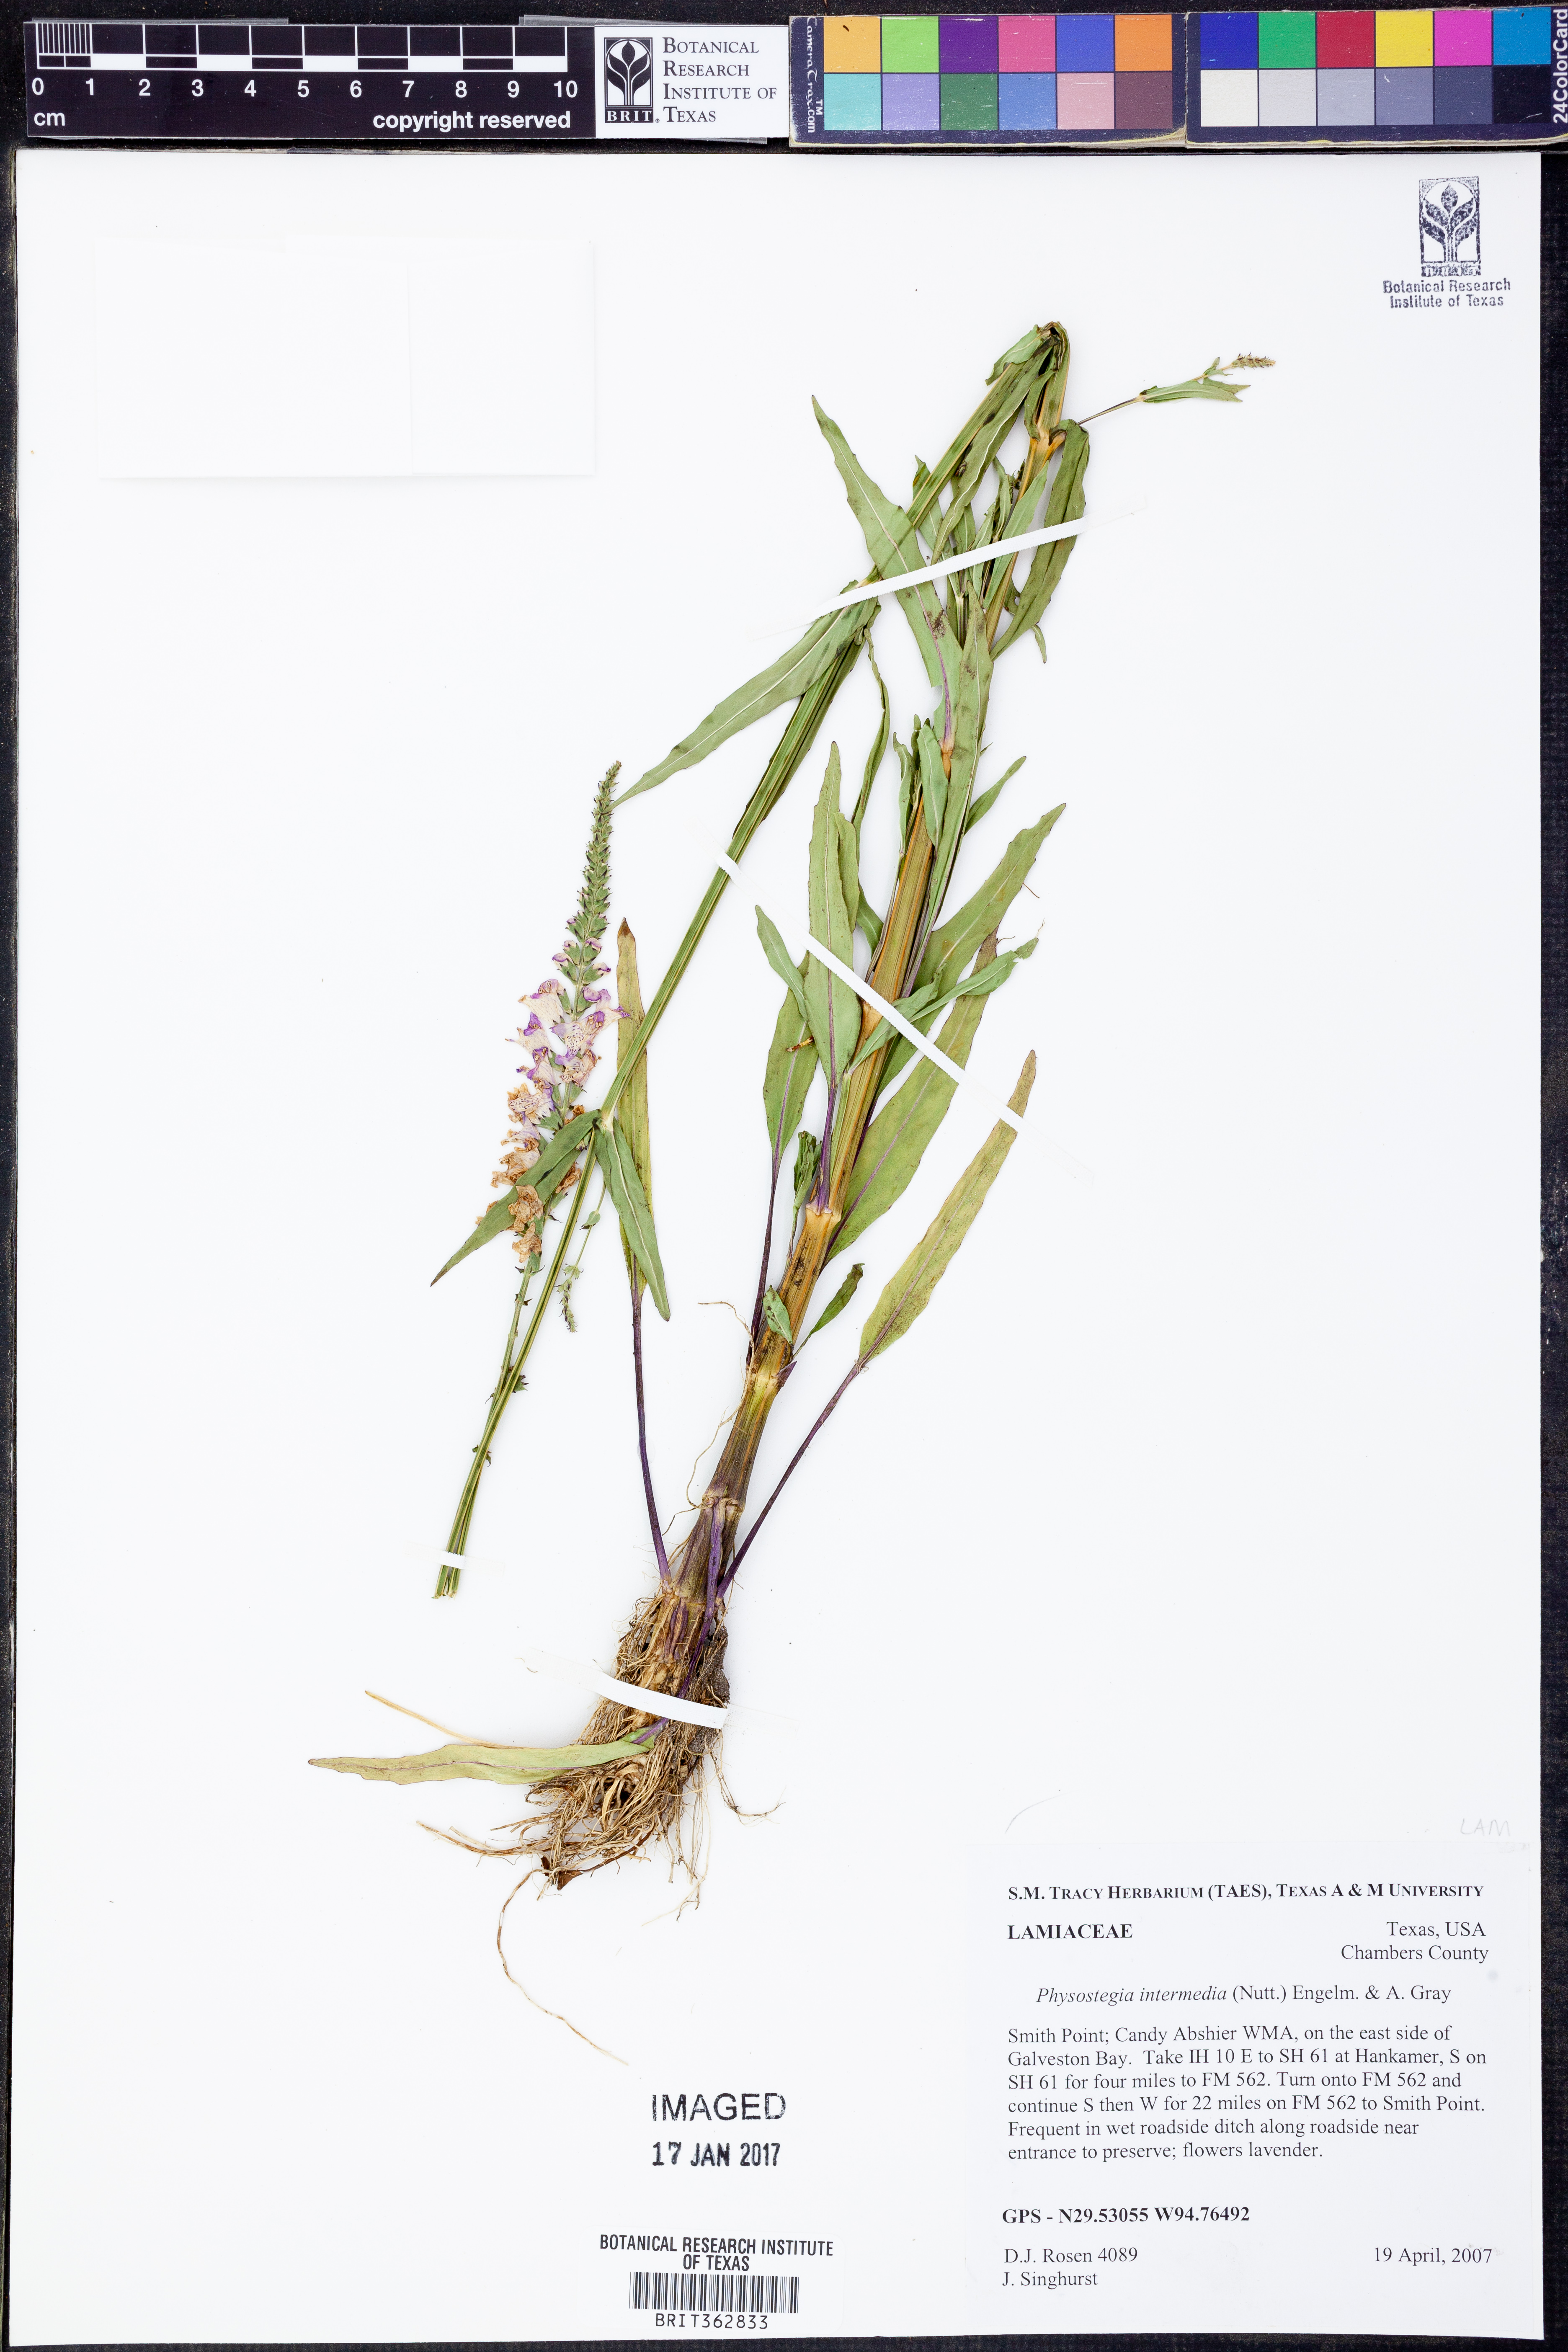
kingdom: Plantae
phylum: Tracheophyta
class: Magnoliopsida
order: Lamiales
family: Lamiaceae
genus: Physostegia
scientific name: Physostegia intermedia
